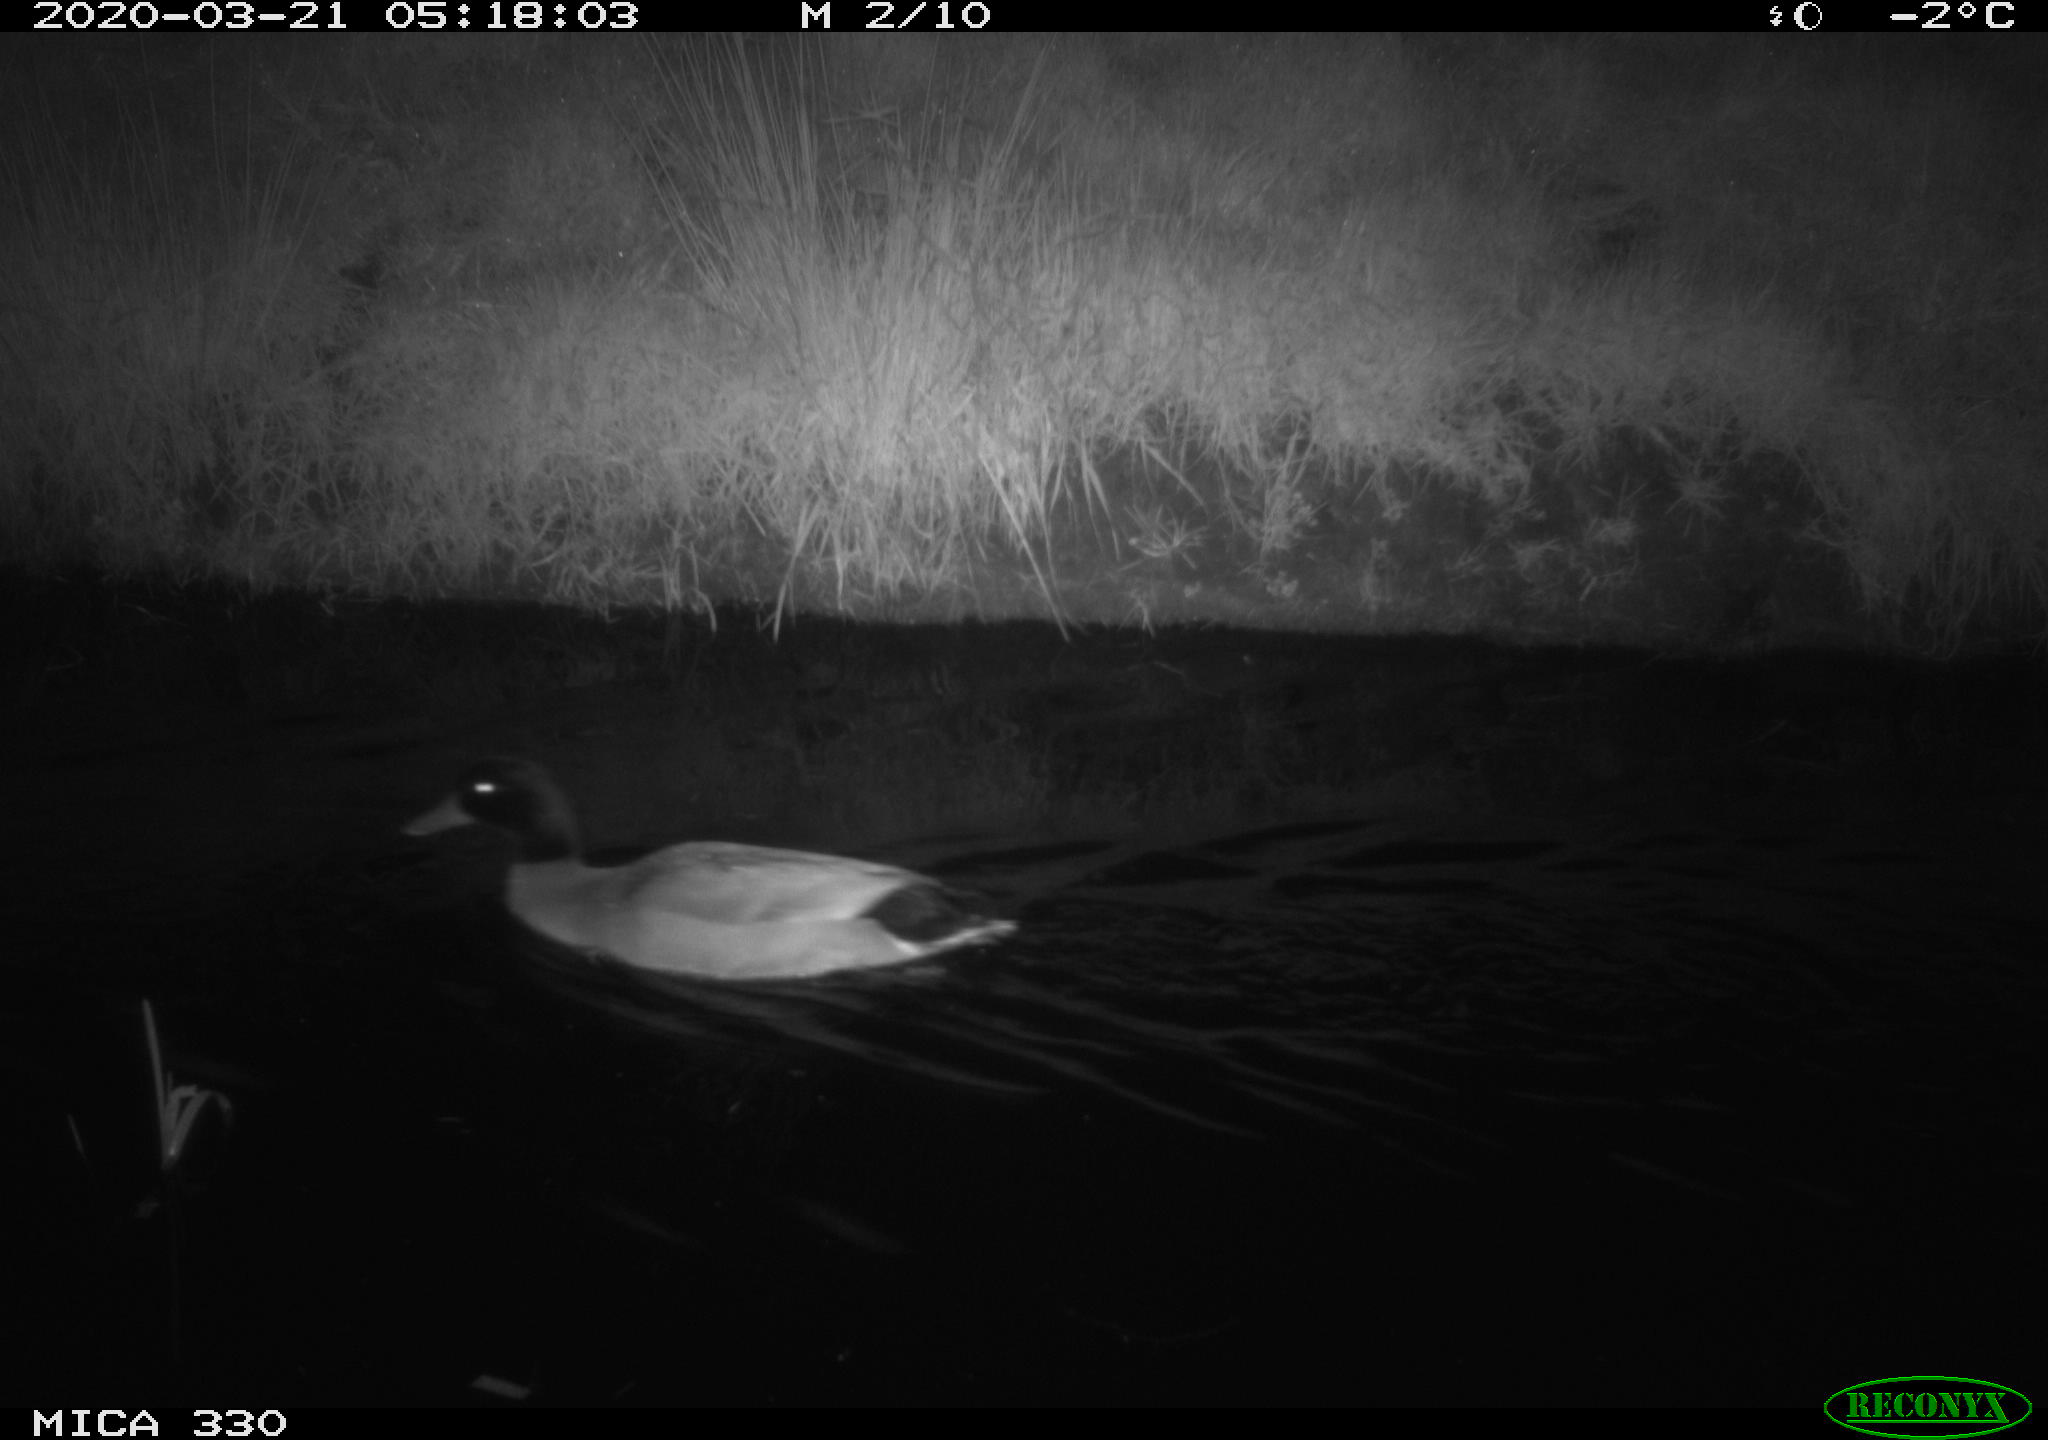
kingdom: Animalia
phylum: Chordata
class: Aves
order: Anseriformes
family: Anatidae
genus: Anas
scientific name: Anas platyrhynchos
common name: Mallard
